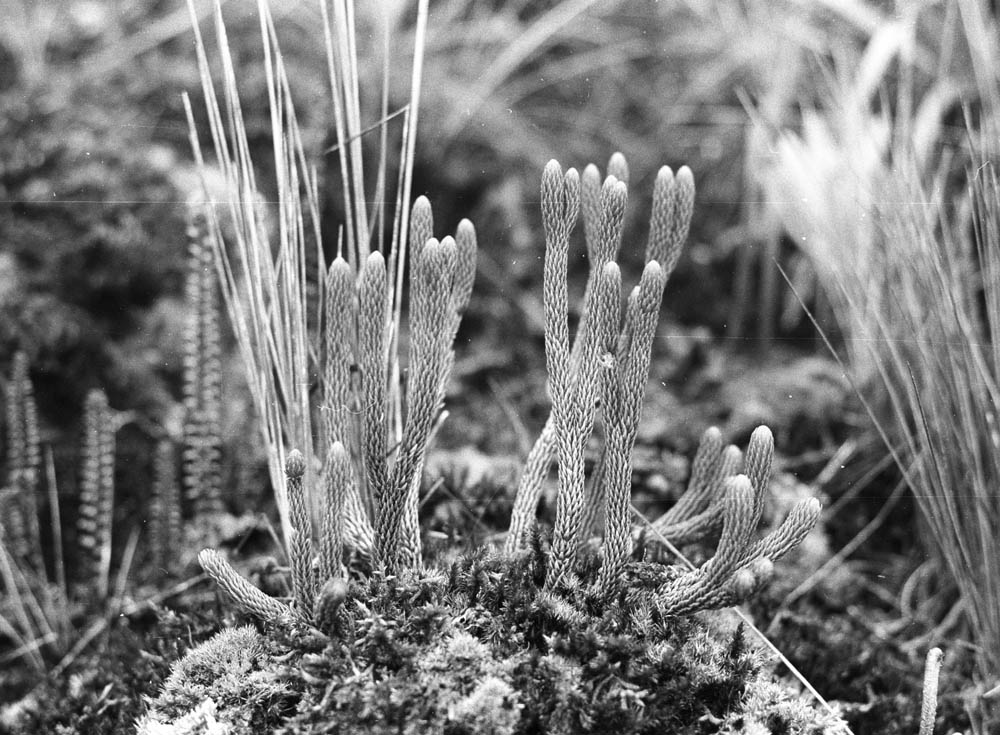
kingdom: Plantae
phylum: Tracheophyta
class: Lycopodiopsida
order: Lycopodiales
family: Lycopodiaceae
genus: Phlegmariurus
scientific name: Phlegmariurus crassus
